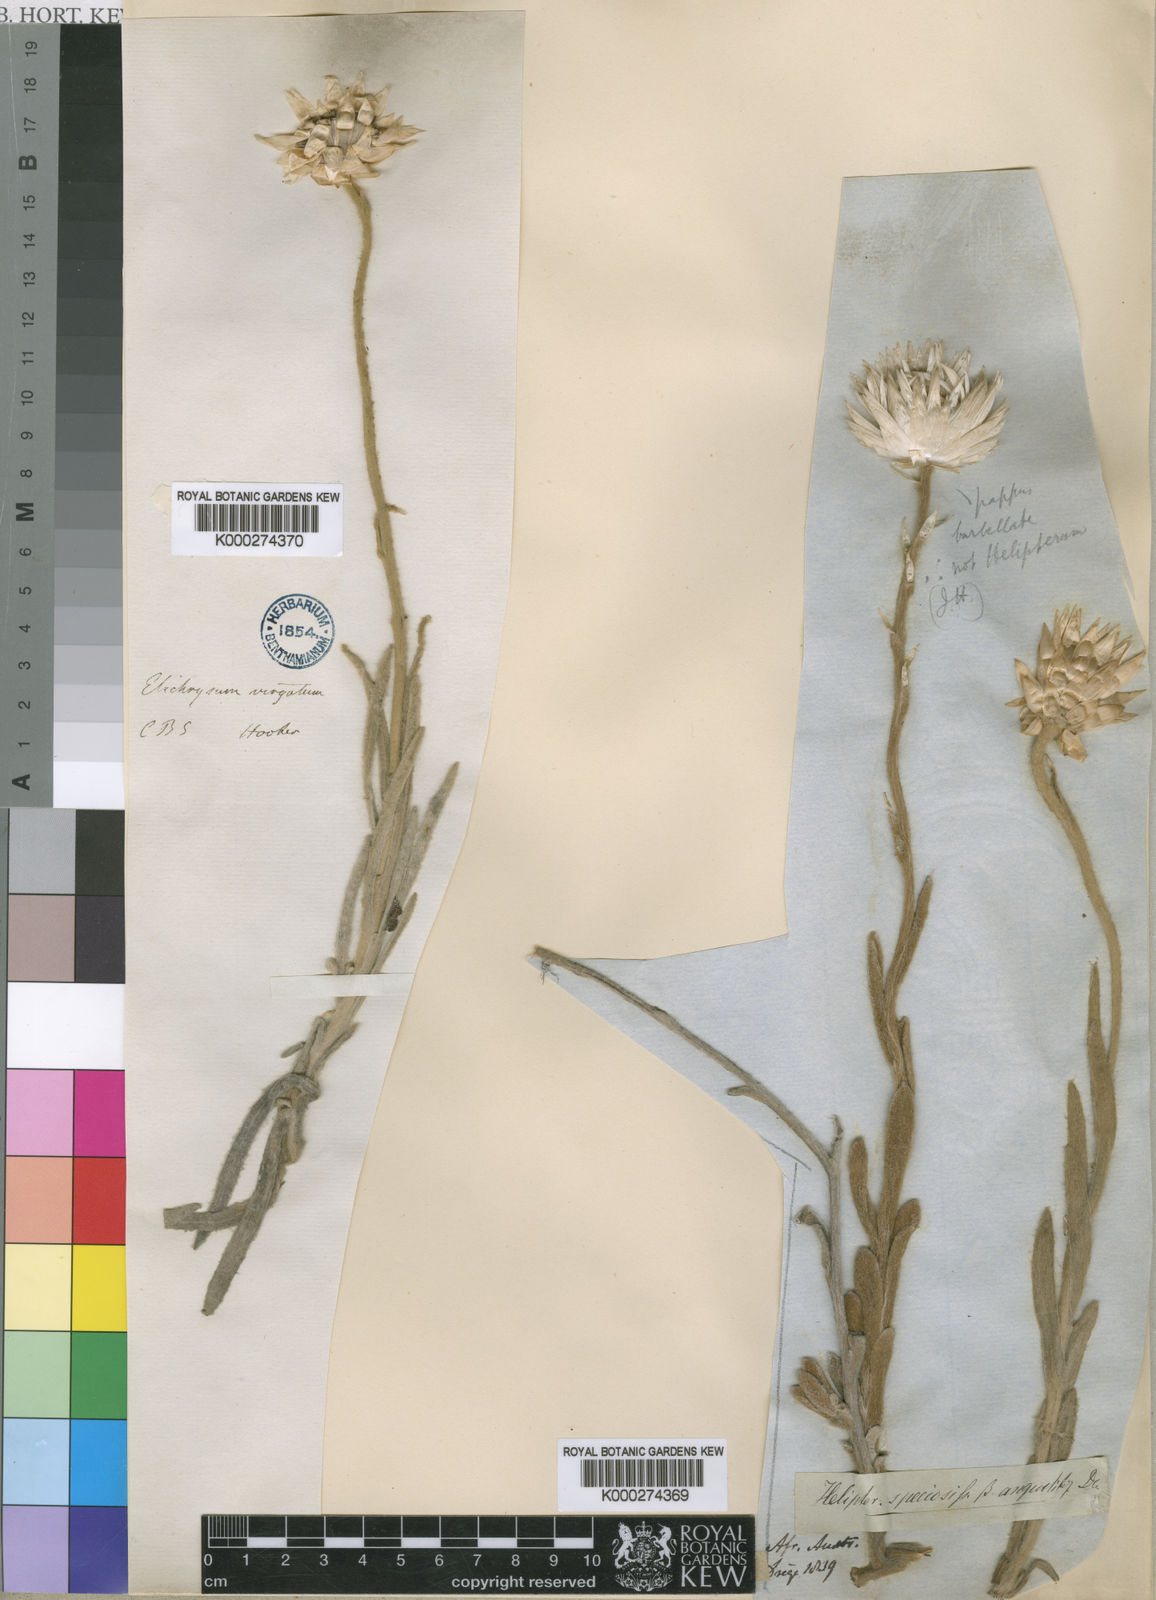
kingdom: Plantae
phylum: Tracheophyta
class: Magnoliopsida
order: Asterales
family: Asteraceae
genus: Syncarpha
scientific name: Syncarpha speciosissima
